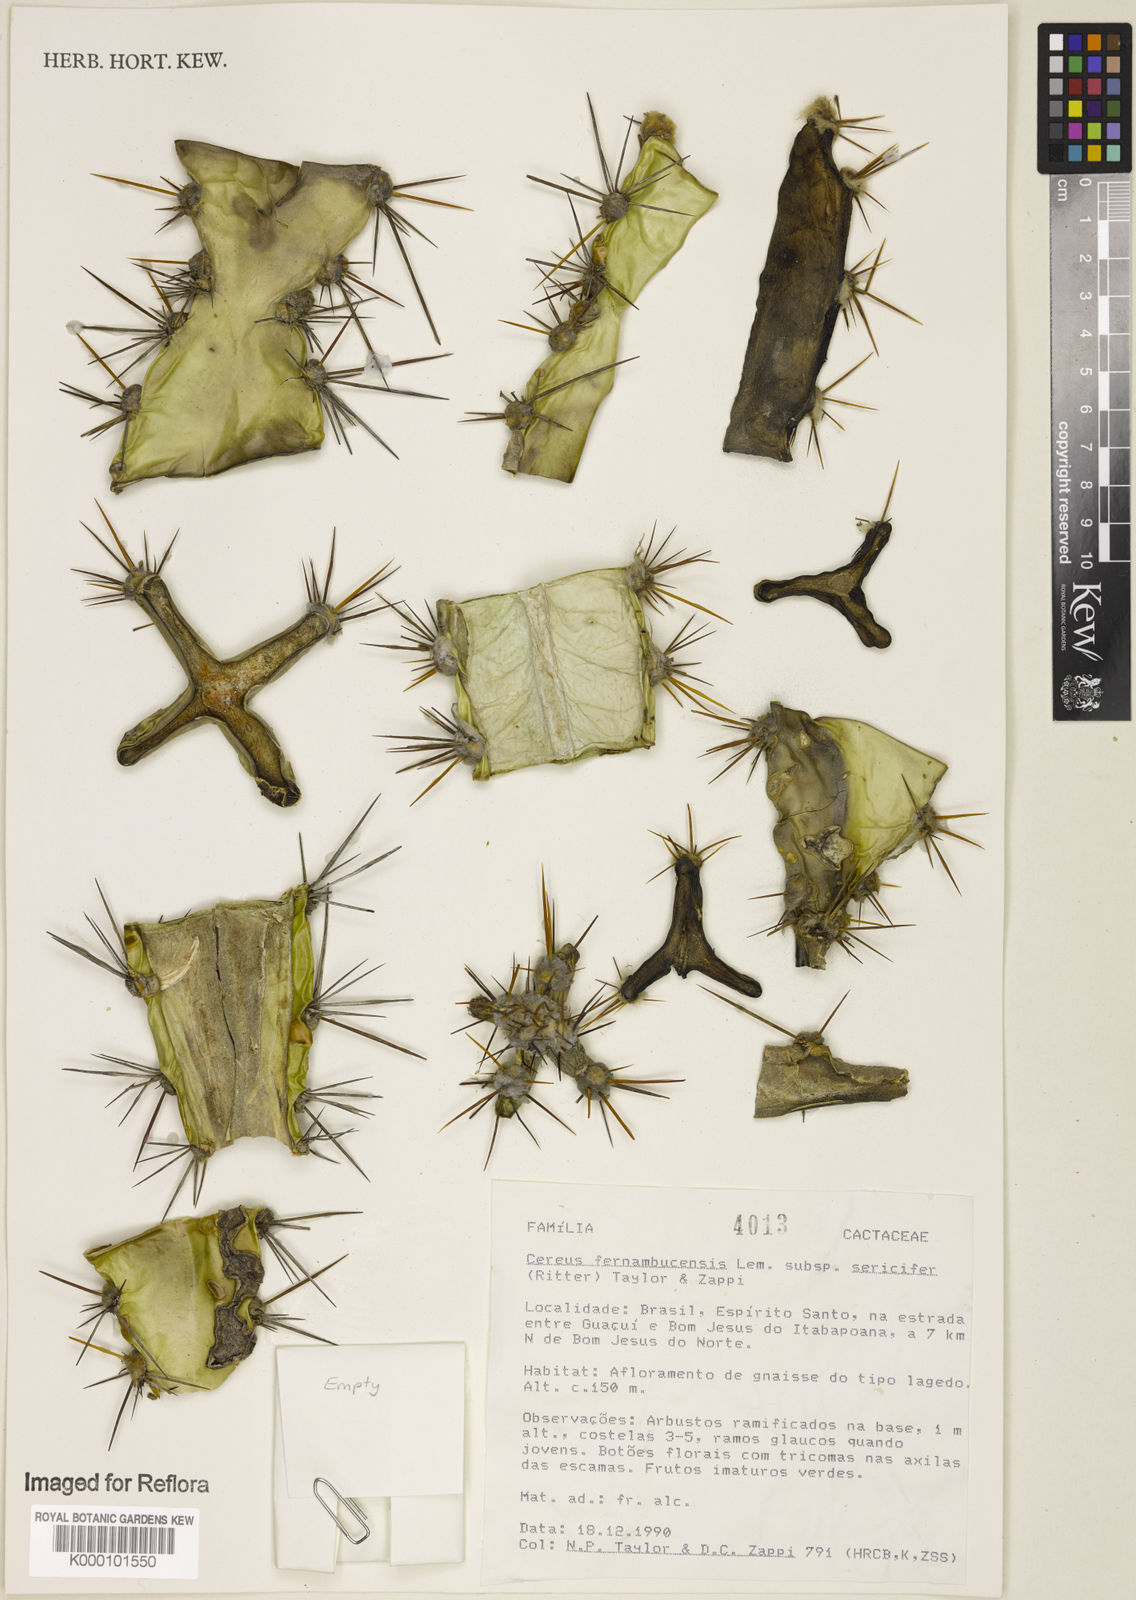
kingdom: Plantae
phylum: Tracheophyta
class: Magnoliopsida
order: Caryophyllales
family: Cactaceae
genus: Cereus
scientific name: Cereus fernambucensis
